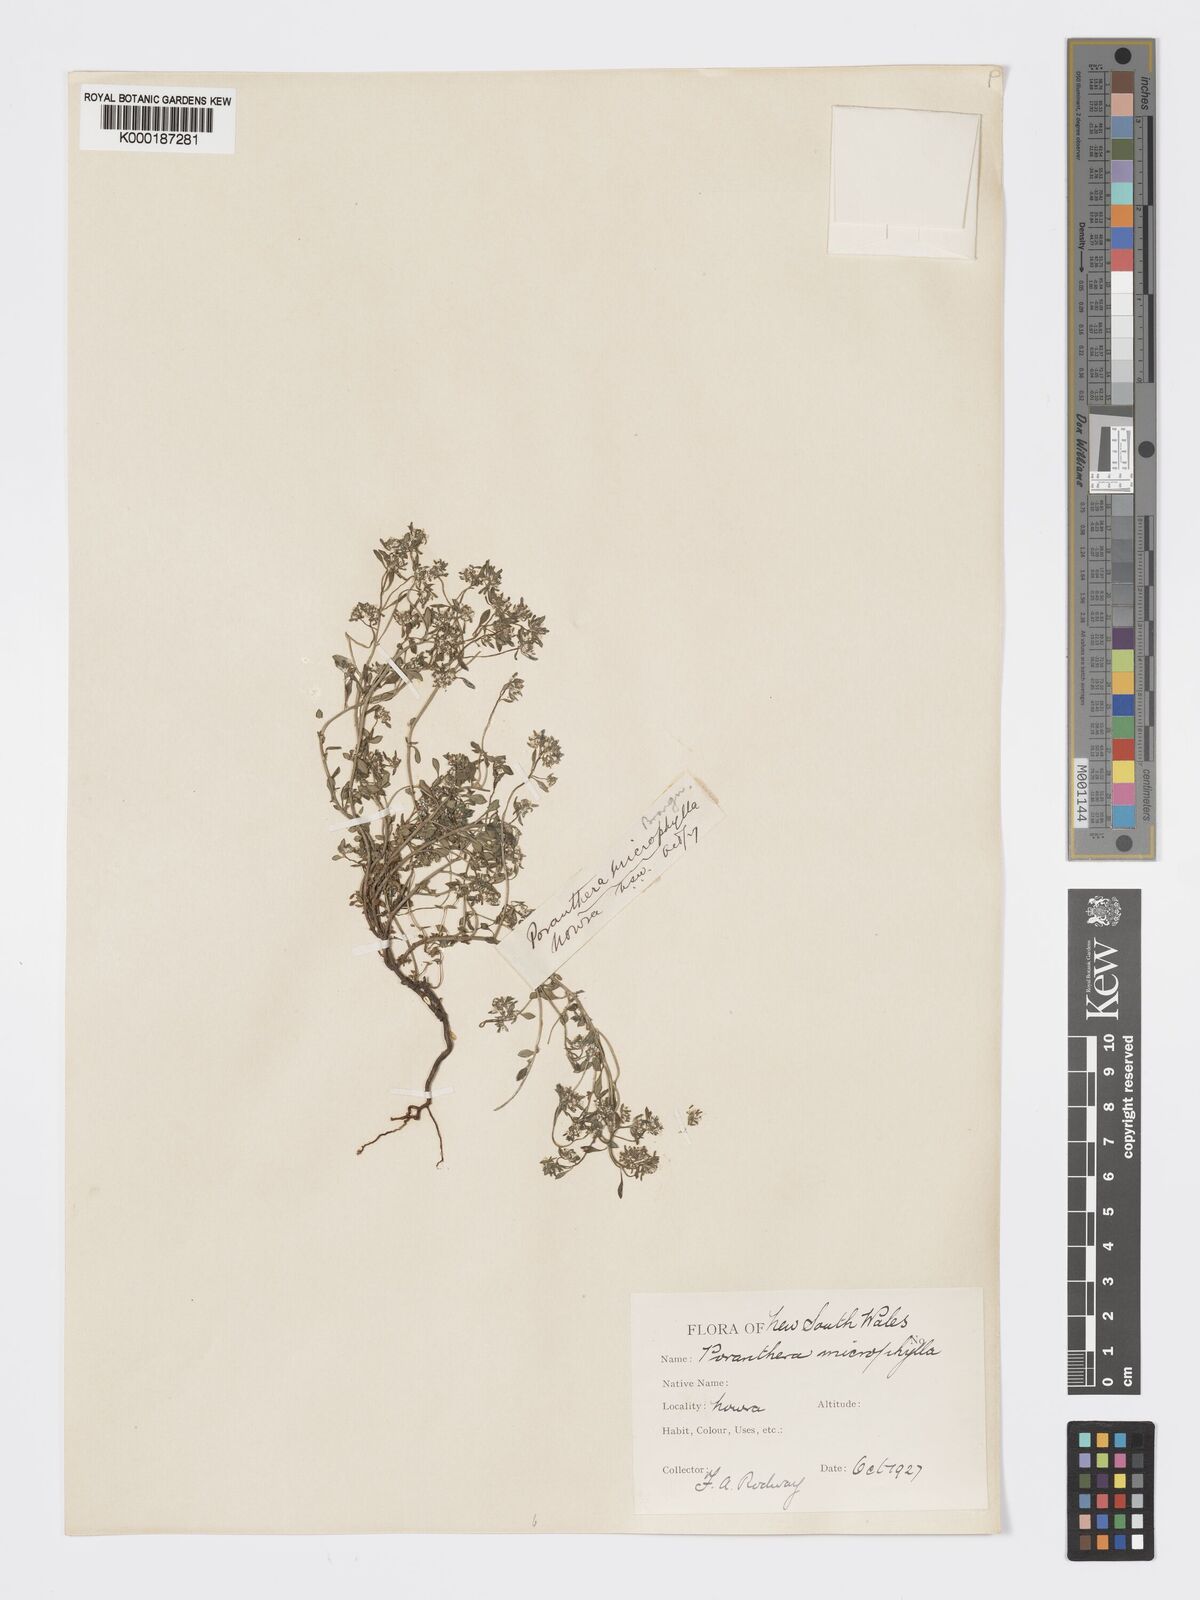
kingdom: Plantae
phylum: Tracheophyta
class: Magnoliopsida
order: Malpighiales
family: Phyllanthaceae
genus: Poranthera
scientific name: Poranthera microphylla
